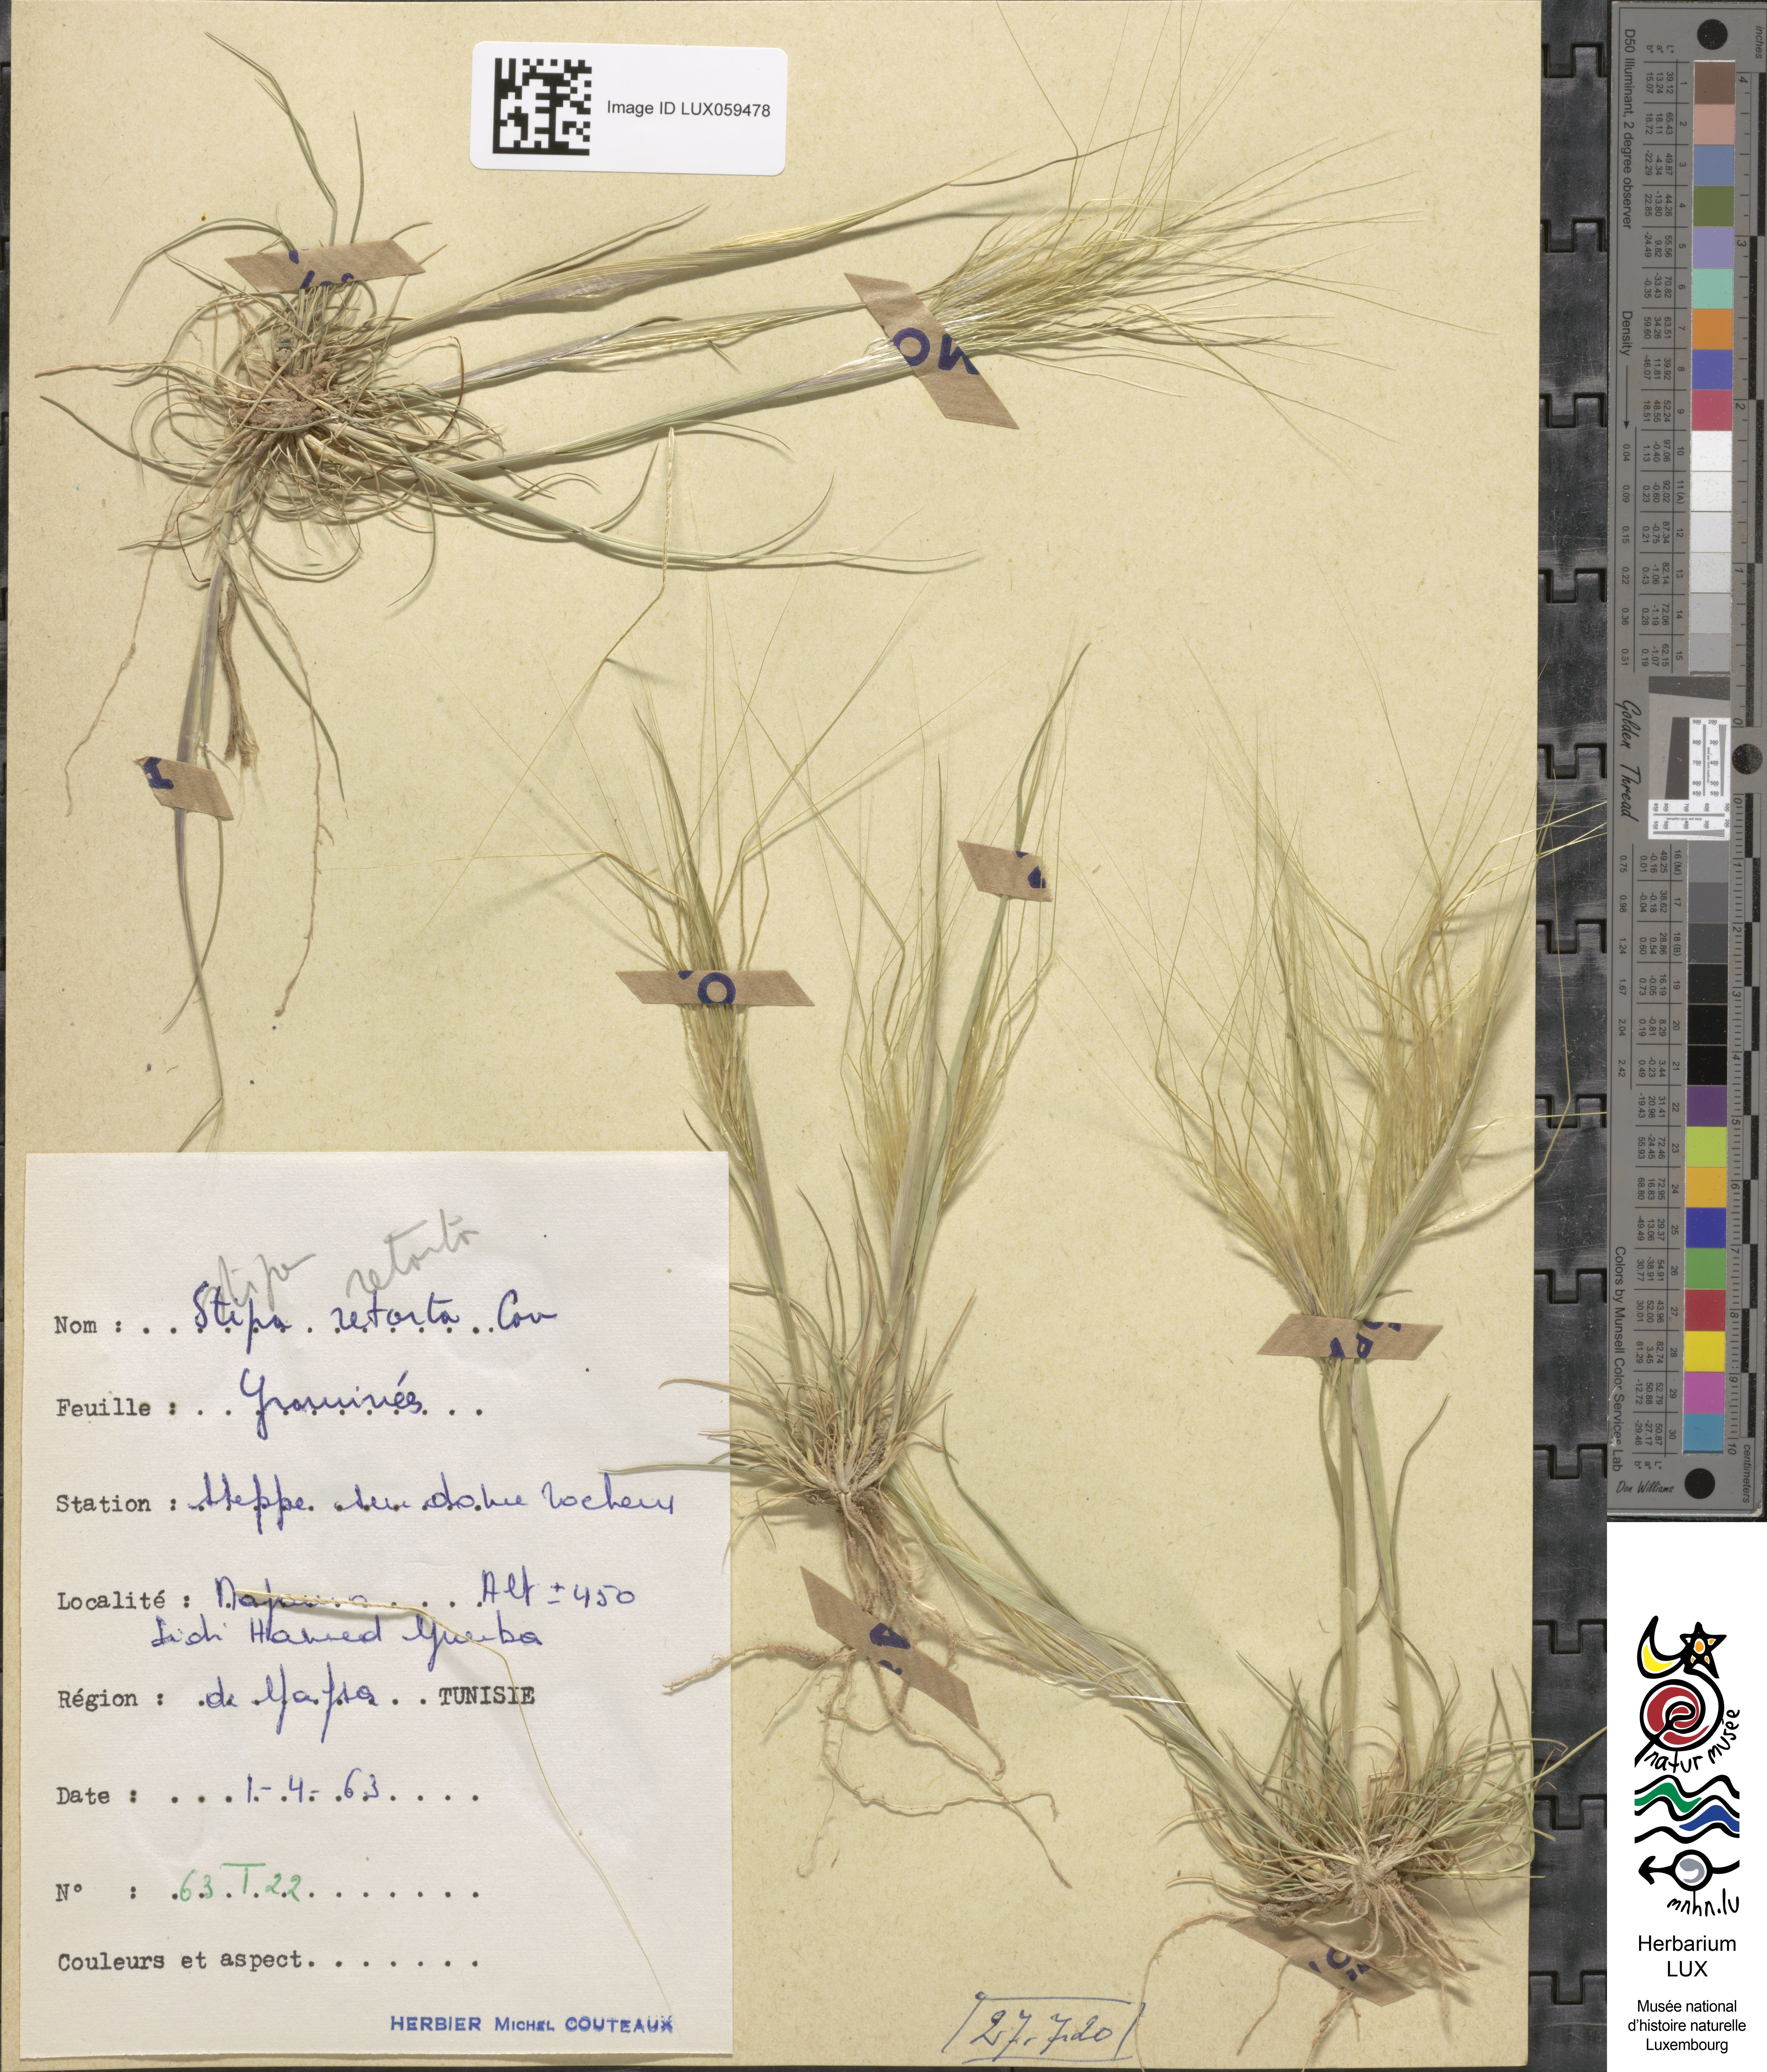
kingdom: Plantae
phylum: Tracheophyta
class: Liliopsida
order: Poales
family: Poaceae
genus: Stipellula
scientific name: Stipellula capensis
